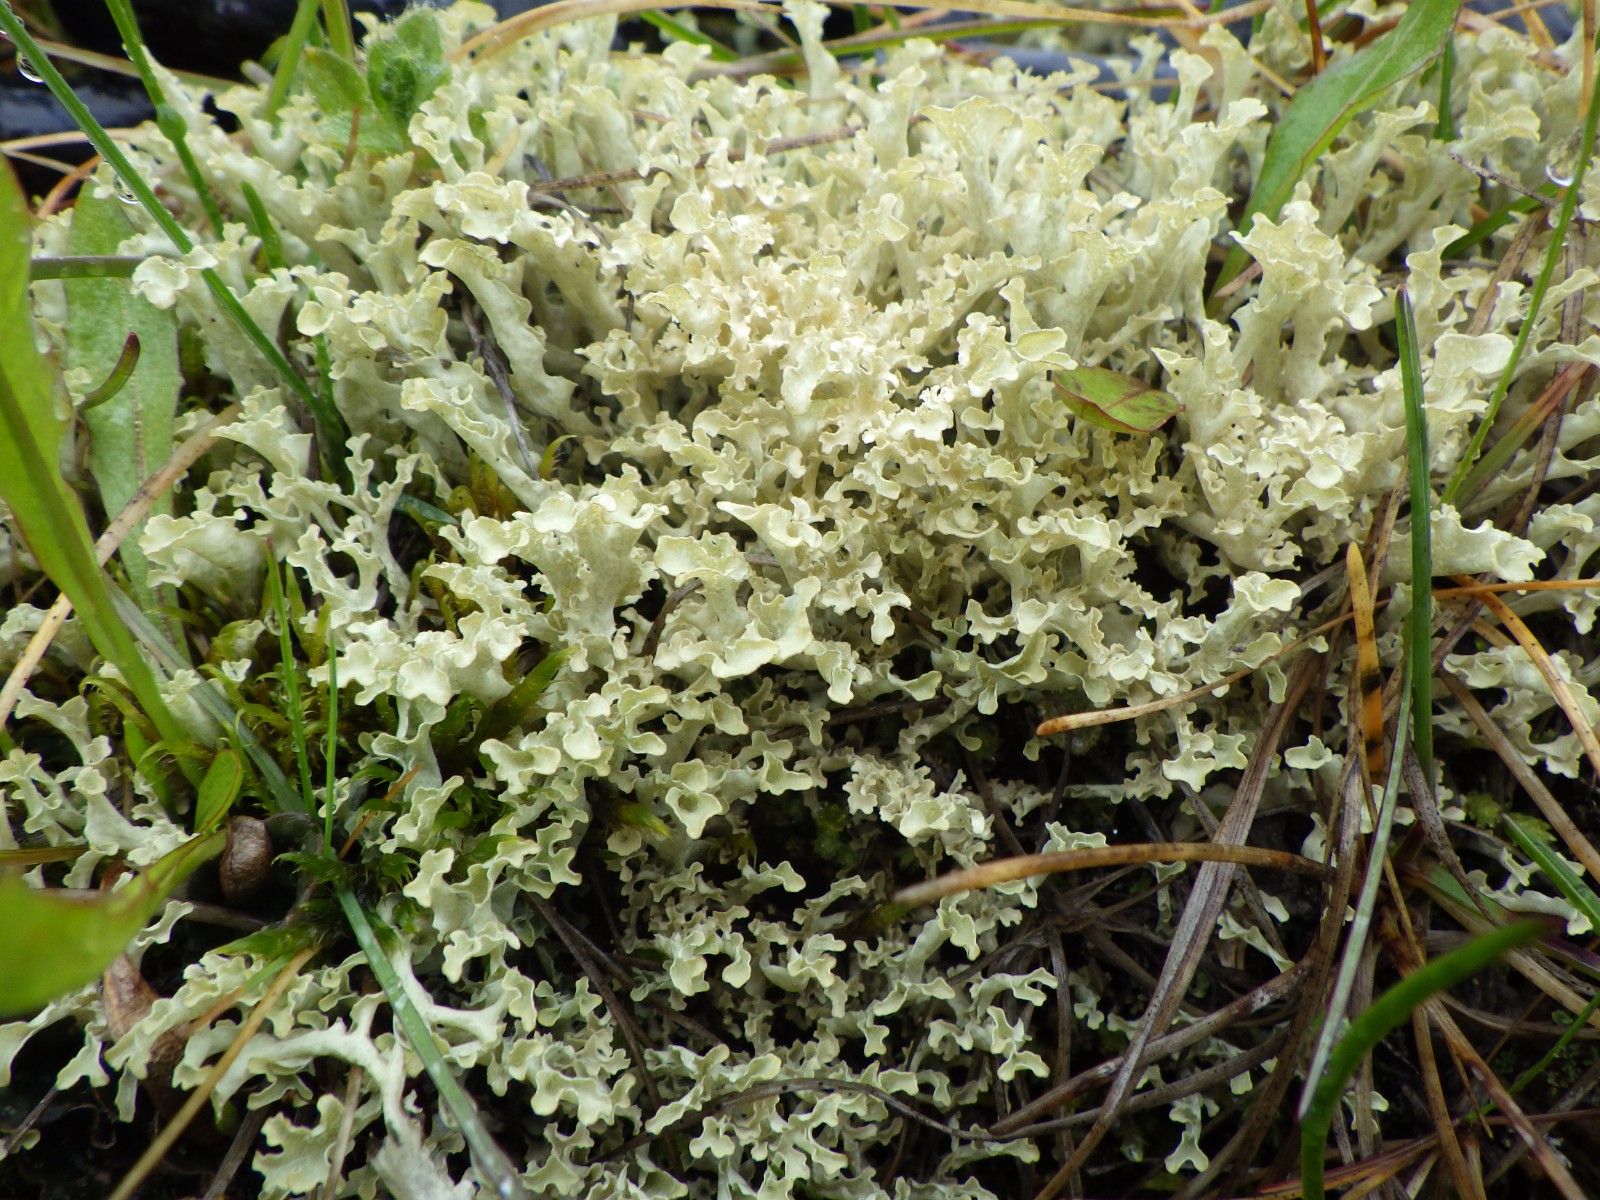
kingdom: Fungi
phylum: Ascomycota
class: Lecanoromycetes
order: Lecanorales
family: Parmeliaceae
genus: Nephromopsis
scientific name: Nephromopsis cucullata
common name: kræmmerhus-kruslav
